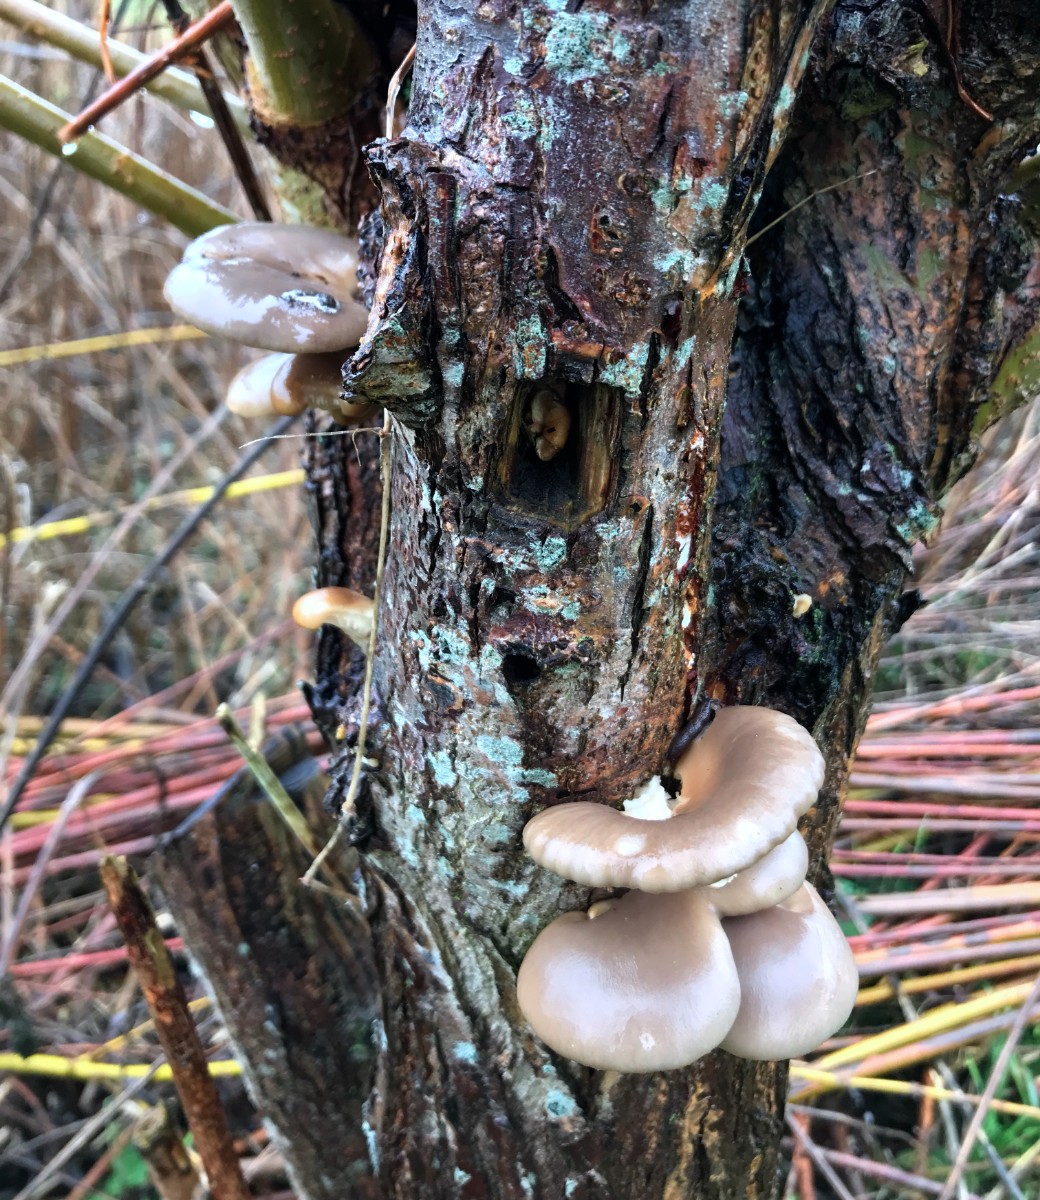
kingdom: Fungi
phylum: Basidiomycota
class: Agaricomycetes
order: Agaricales
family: Pleurotaceae
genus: Pleurotus
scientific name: Pleurotus ostreatus
